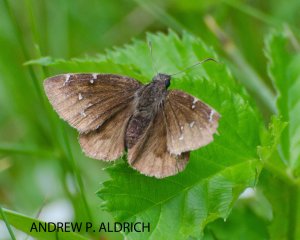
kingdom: Animalia
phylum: Arthropoda
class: Insecta
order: Lepidoptera
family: Hesperiidae
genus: Autochton
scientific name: Autochton
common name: Northern Cloudywing
